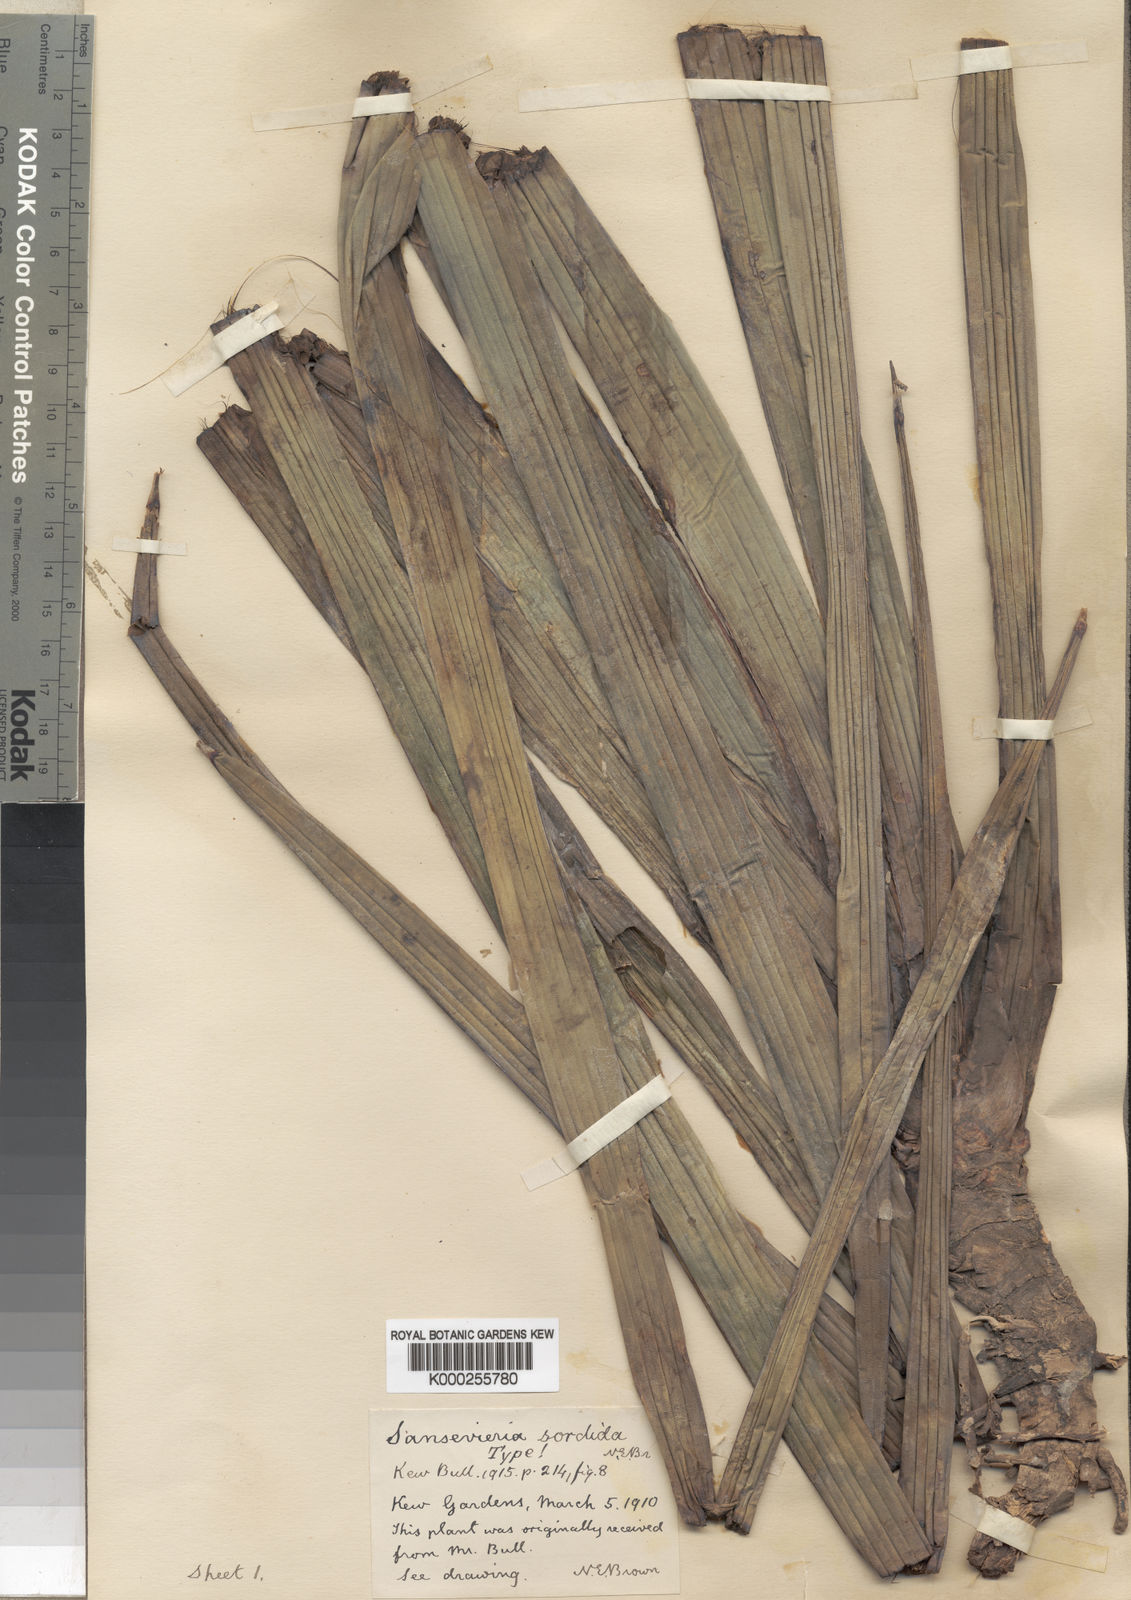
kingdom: Plantae
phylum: Tracheophyta
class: Liliopsida
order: Asparagales
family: Asparagaceae
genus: Dracaena
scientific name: Dracaena varians
